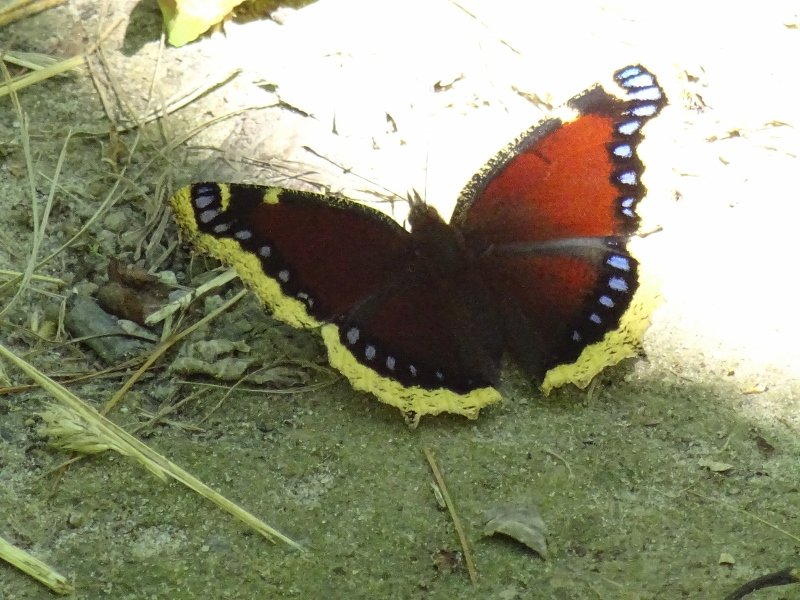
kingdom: Animalia
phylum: Arthropoda
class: Insecta
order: Lepidoptera
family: Nymphalidae
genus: Nymphalis
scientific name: Nymphalis antiopa
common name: Mourning Cloak
